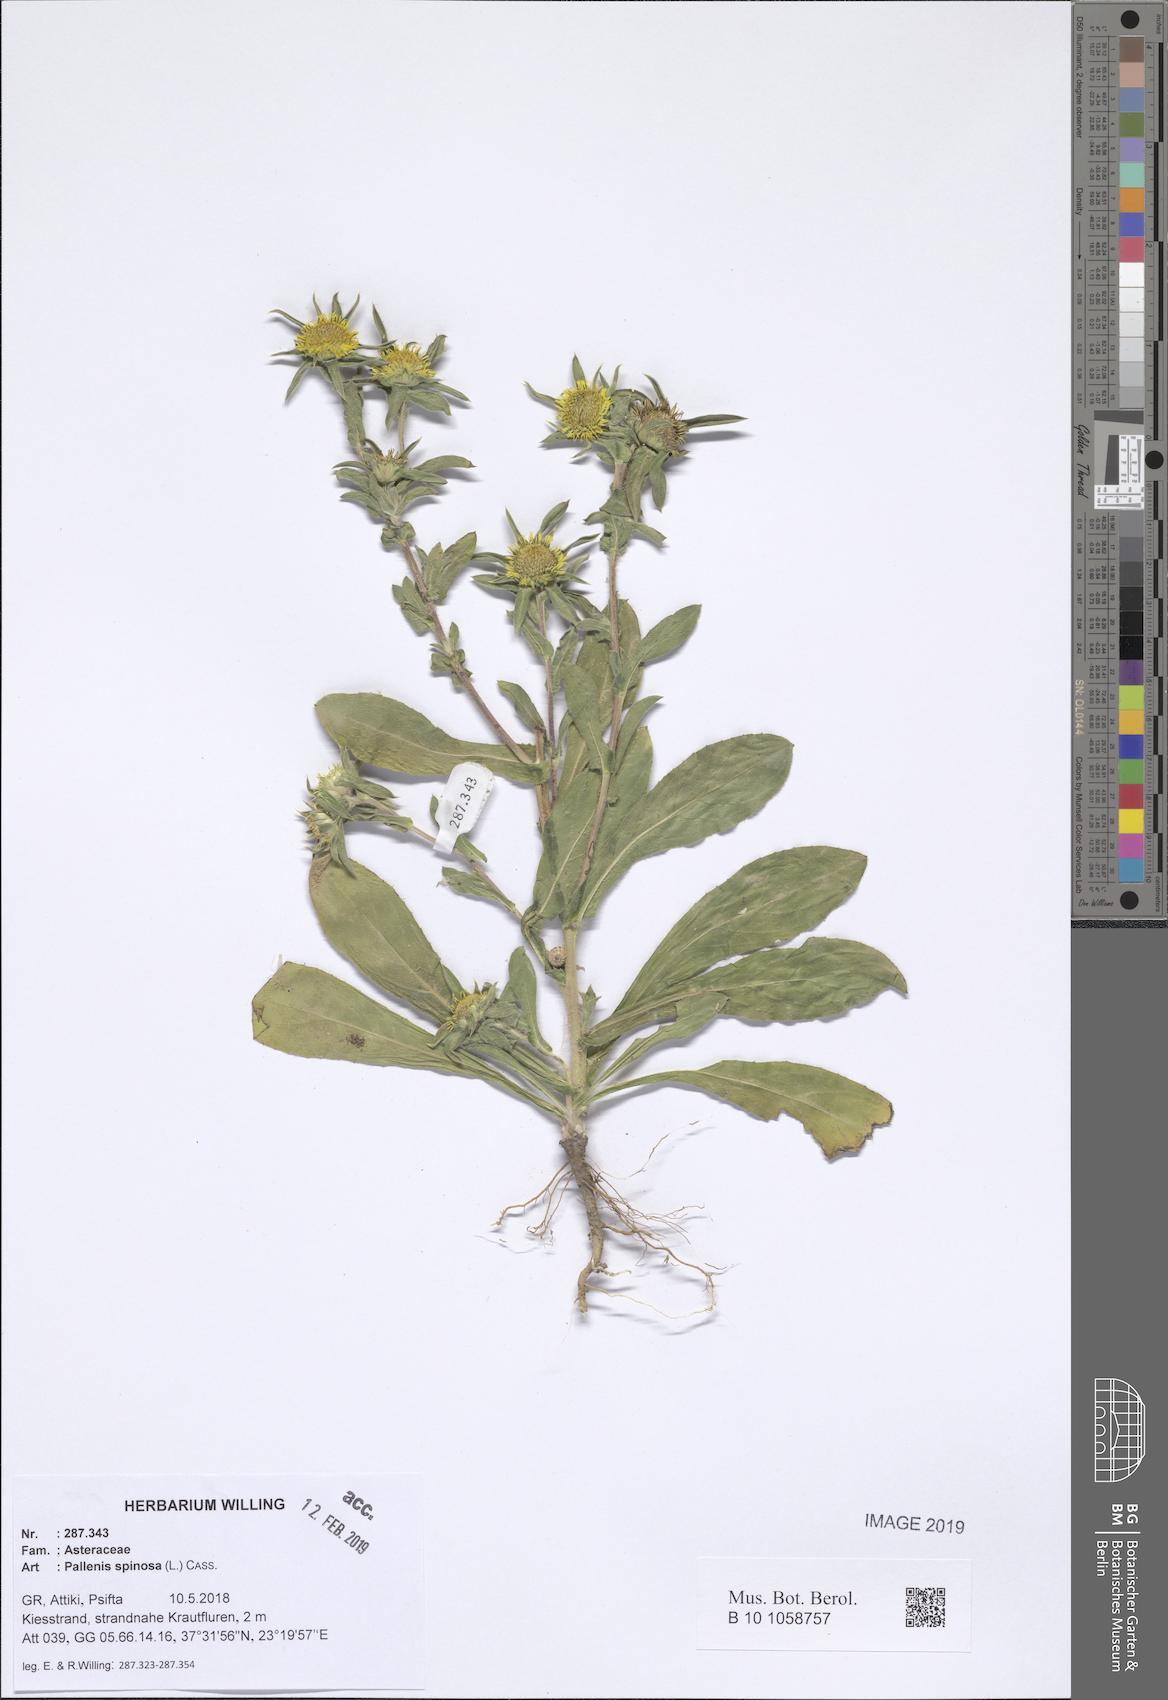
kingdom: Plantae
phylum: Tracheophyta
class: Magnoliopsida
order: Asterales
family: Asteraceae
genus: Pallenis
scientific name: Pallenis spinosa
